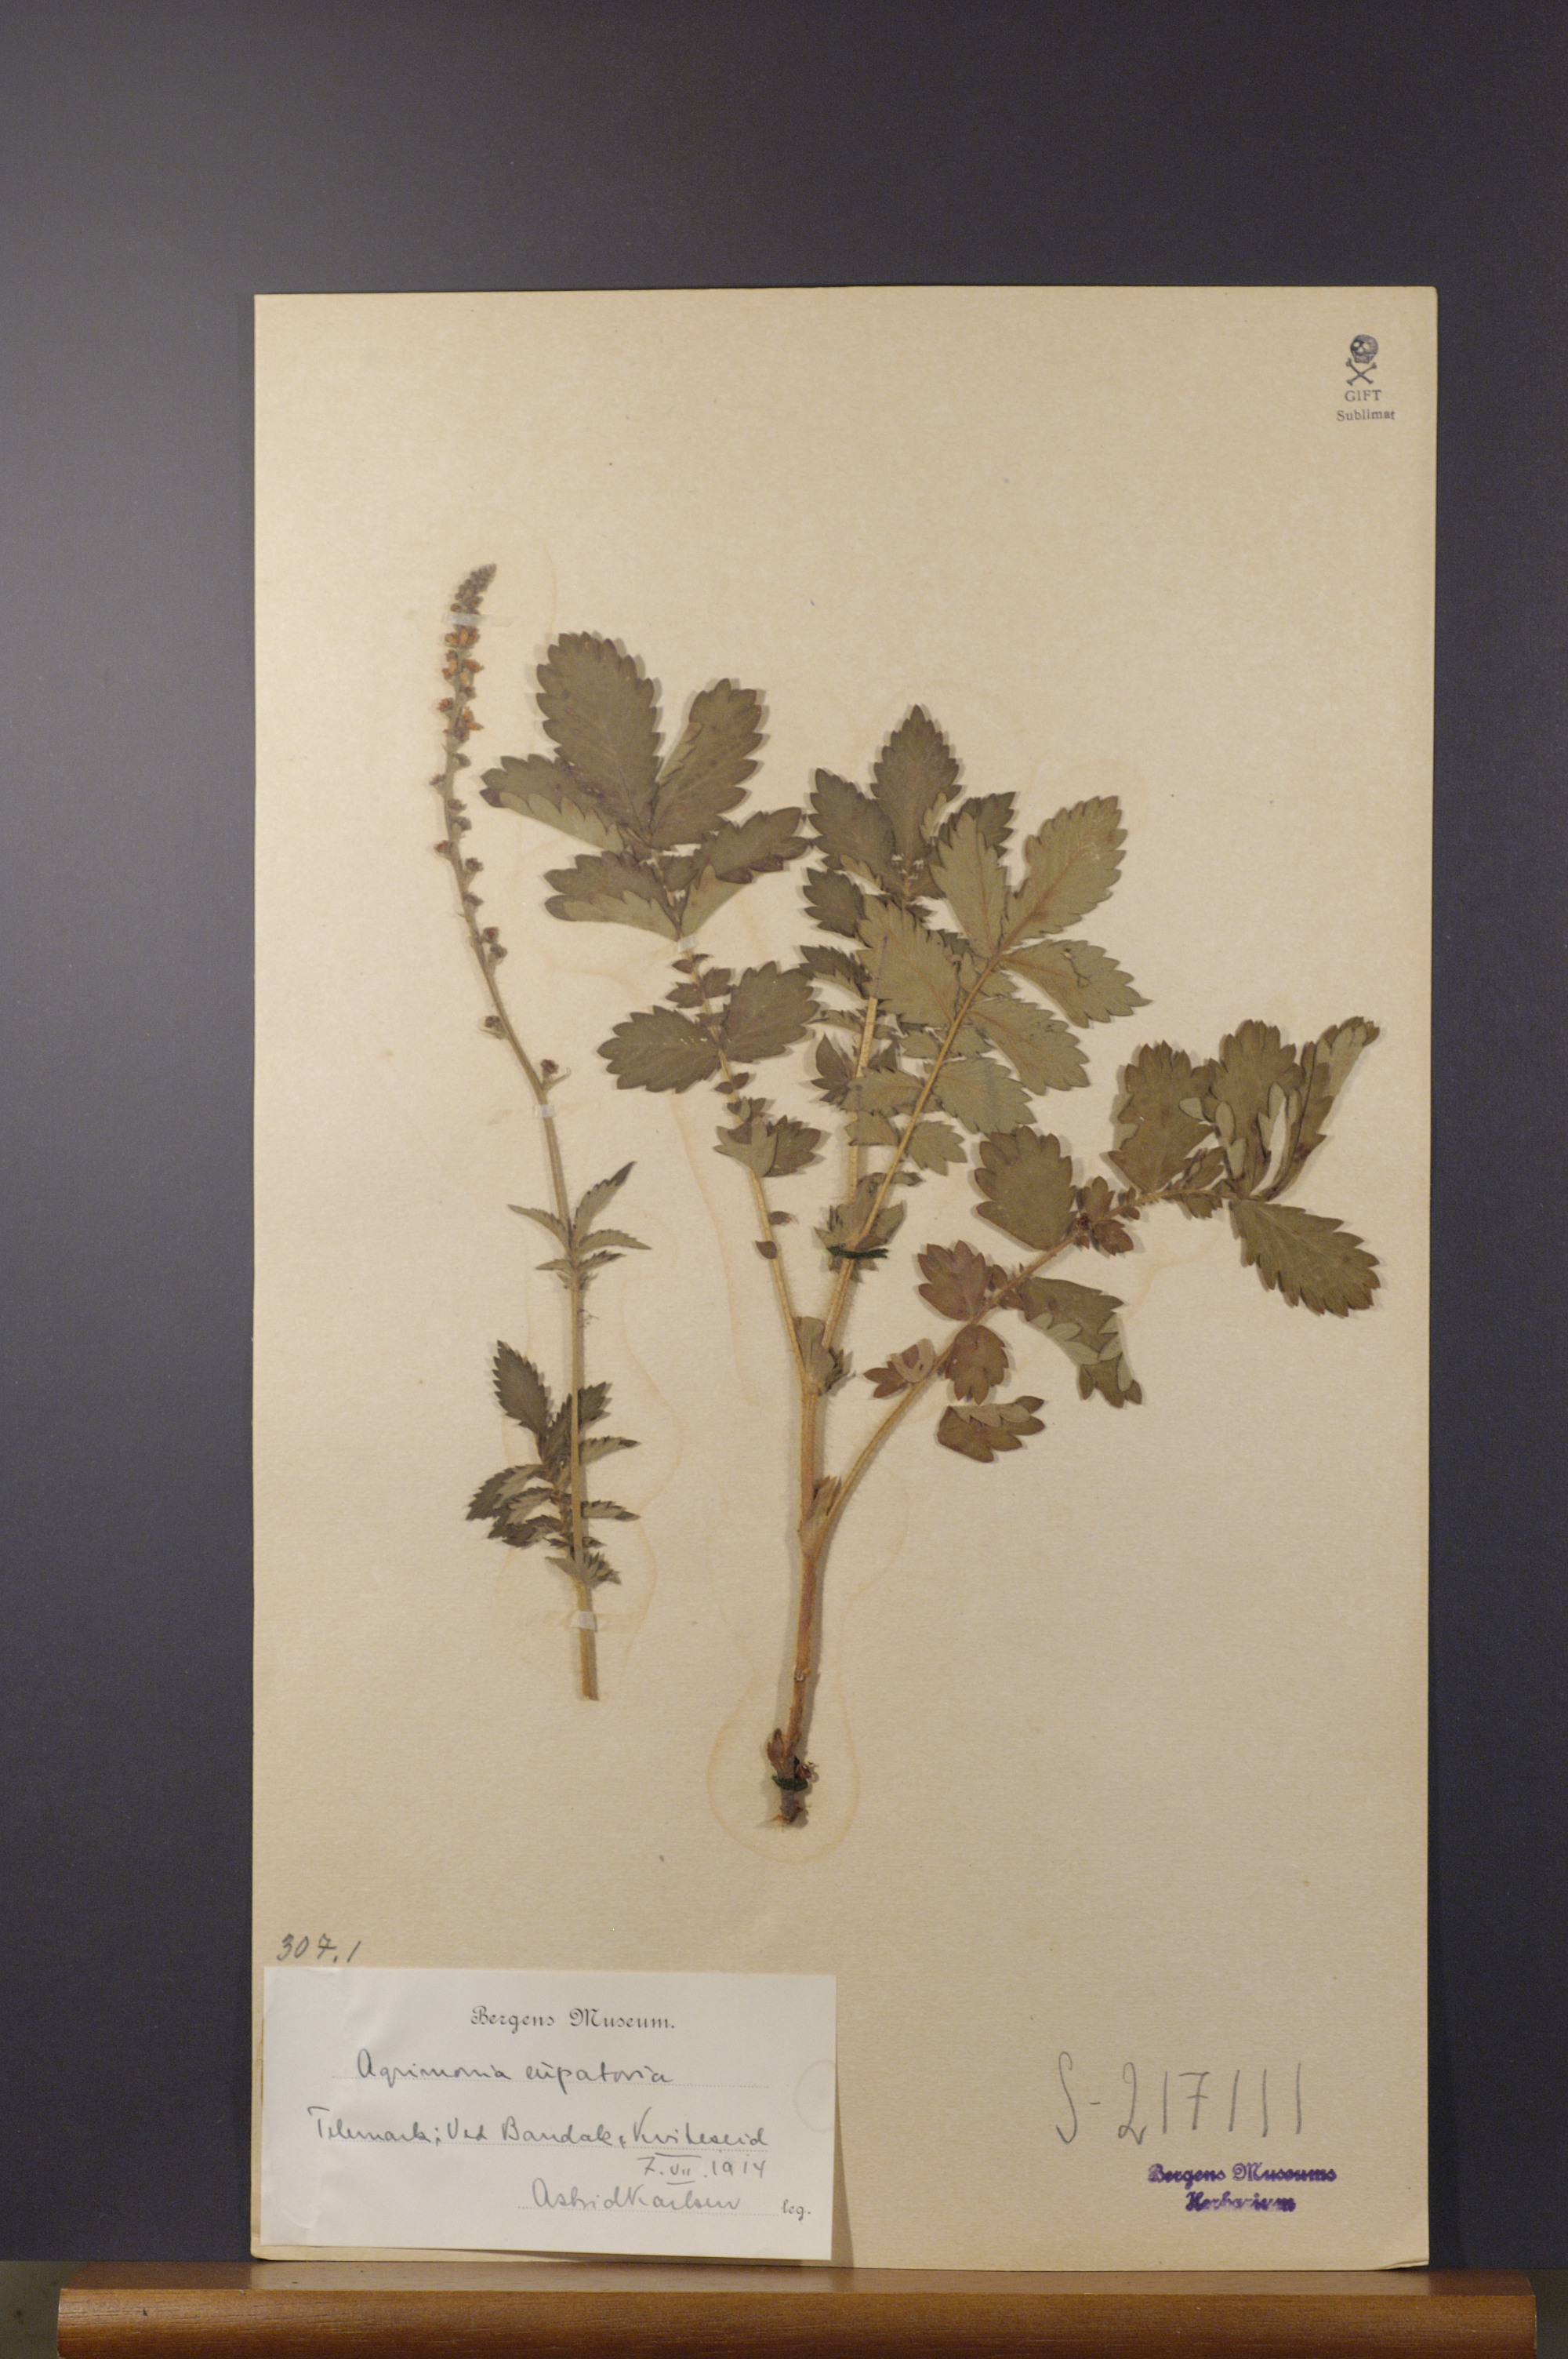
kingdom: Plantae
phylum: Tracheophyta
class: Magnoliopsida
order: Rosales
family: Rosaceae
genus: Agrimonia
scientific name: Agrimonia eupatoria
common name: Agrimony
